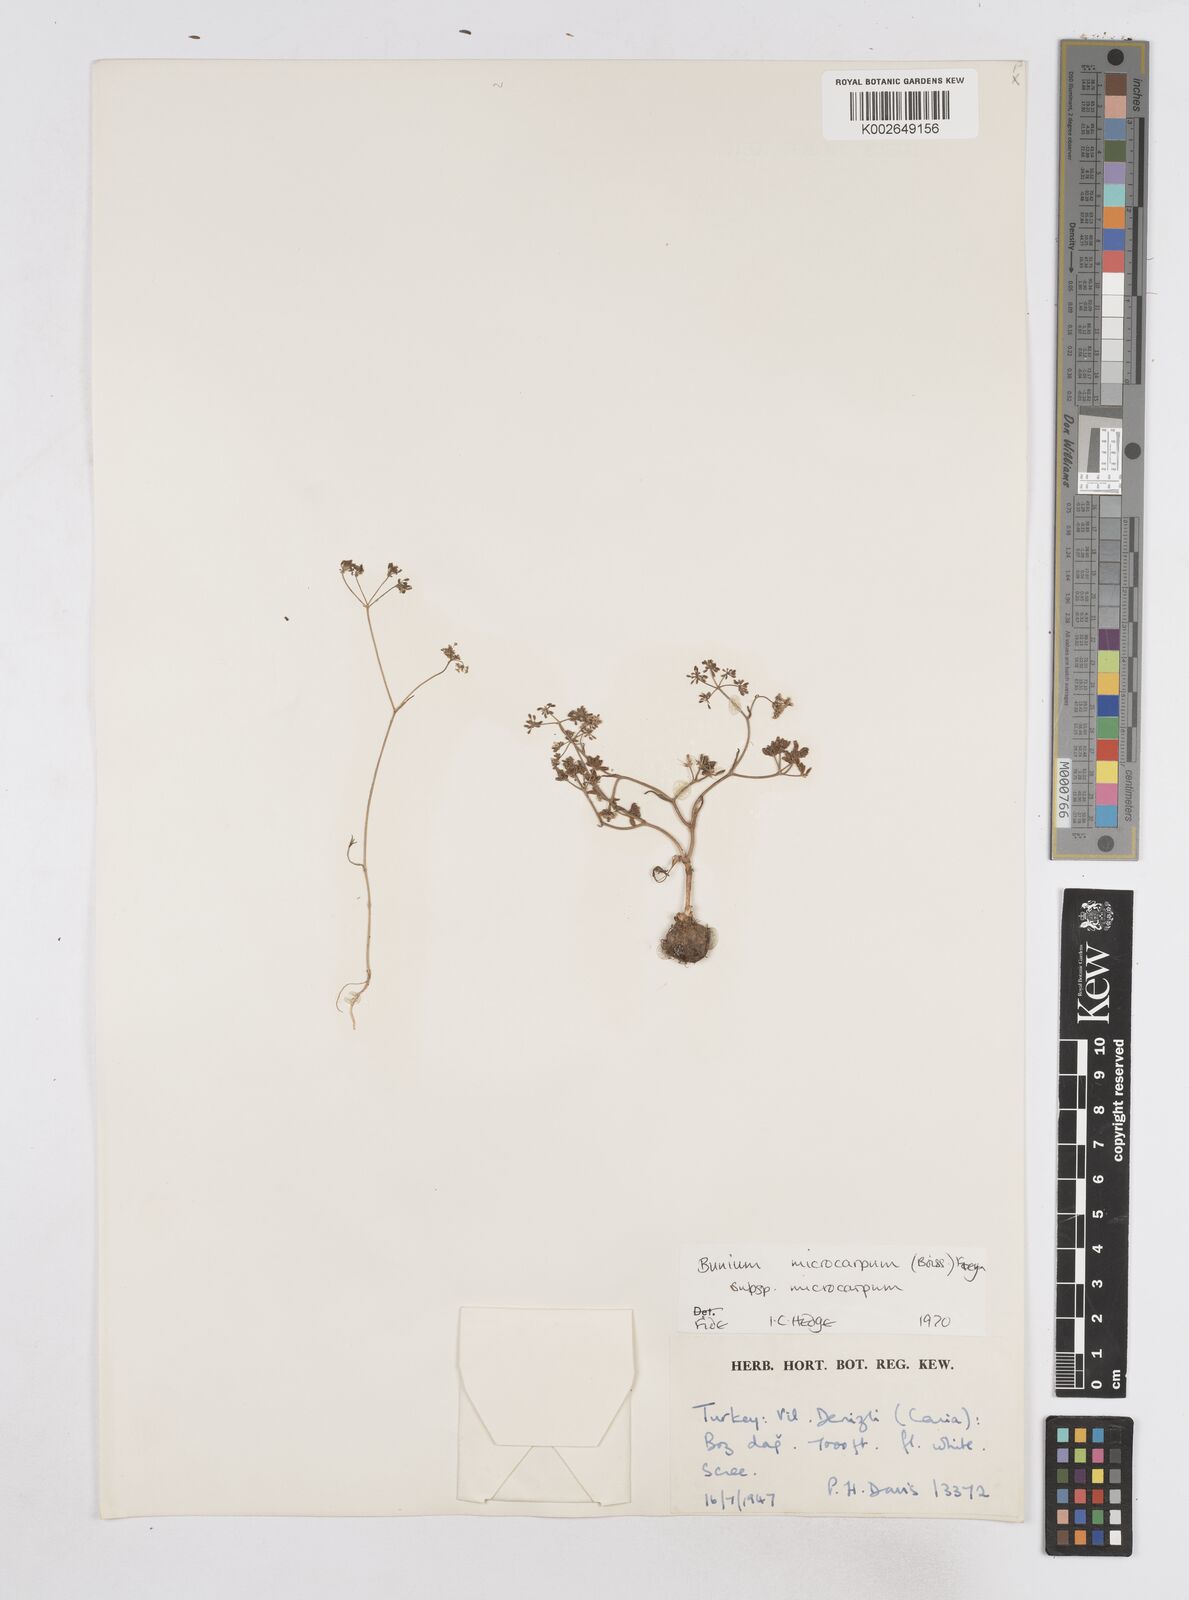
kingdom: Plantae
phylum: Tracheophyta
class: Magnoliopsida
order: Apiales
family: Apiaceae
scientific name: Apiaceae
